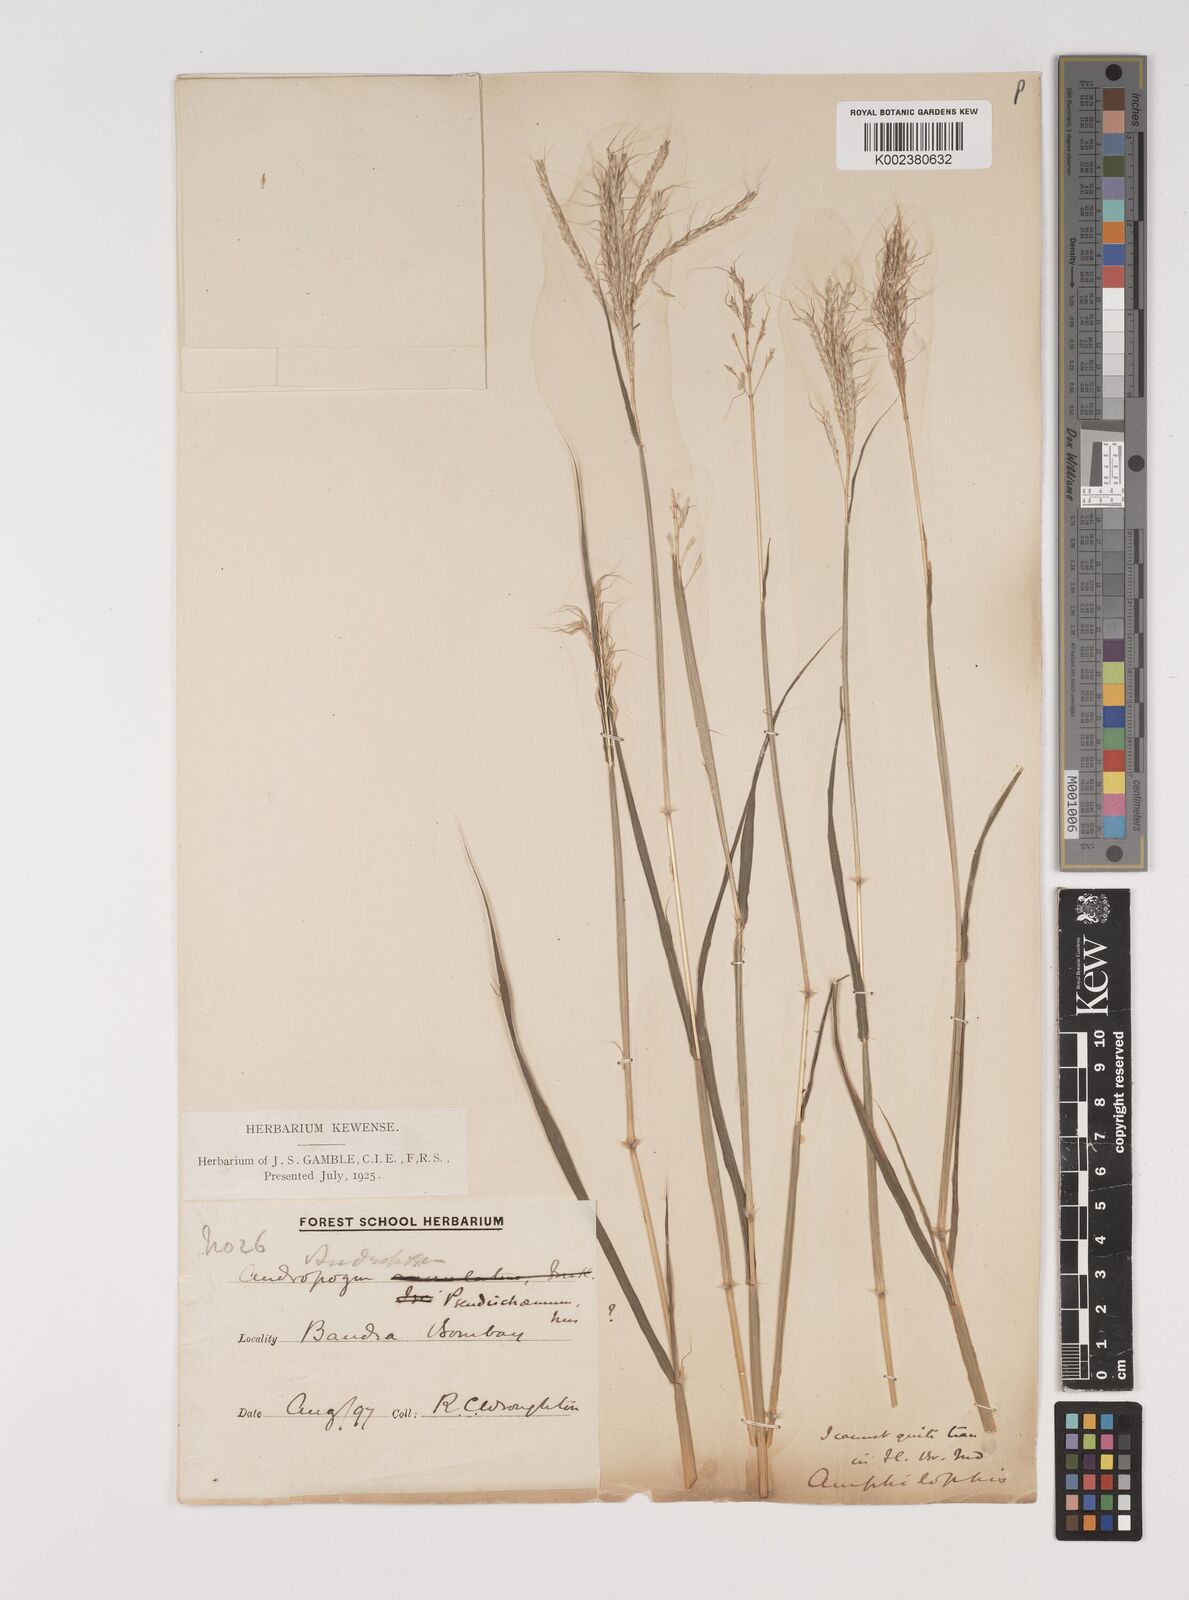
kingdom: Plantae
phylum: Tracheophyta
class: Liliopsida
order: Poales
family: Poaceae
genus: Bothriochloa
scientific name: Bothriochloa bladhii
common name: Caucasian bluestem
